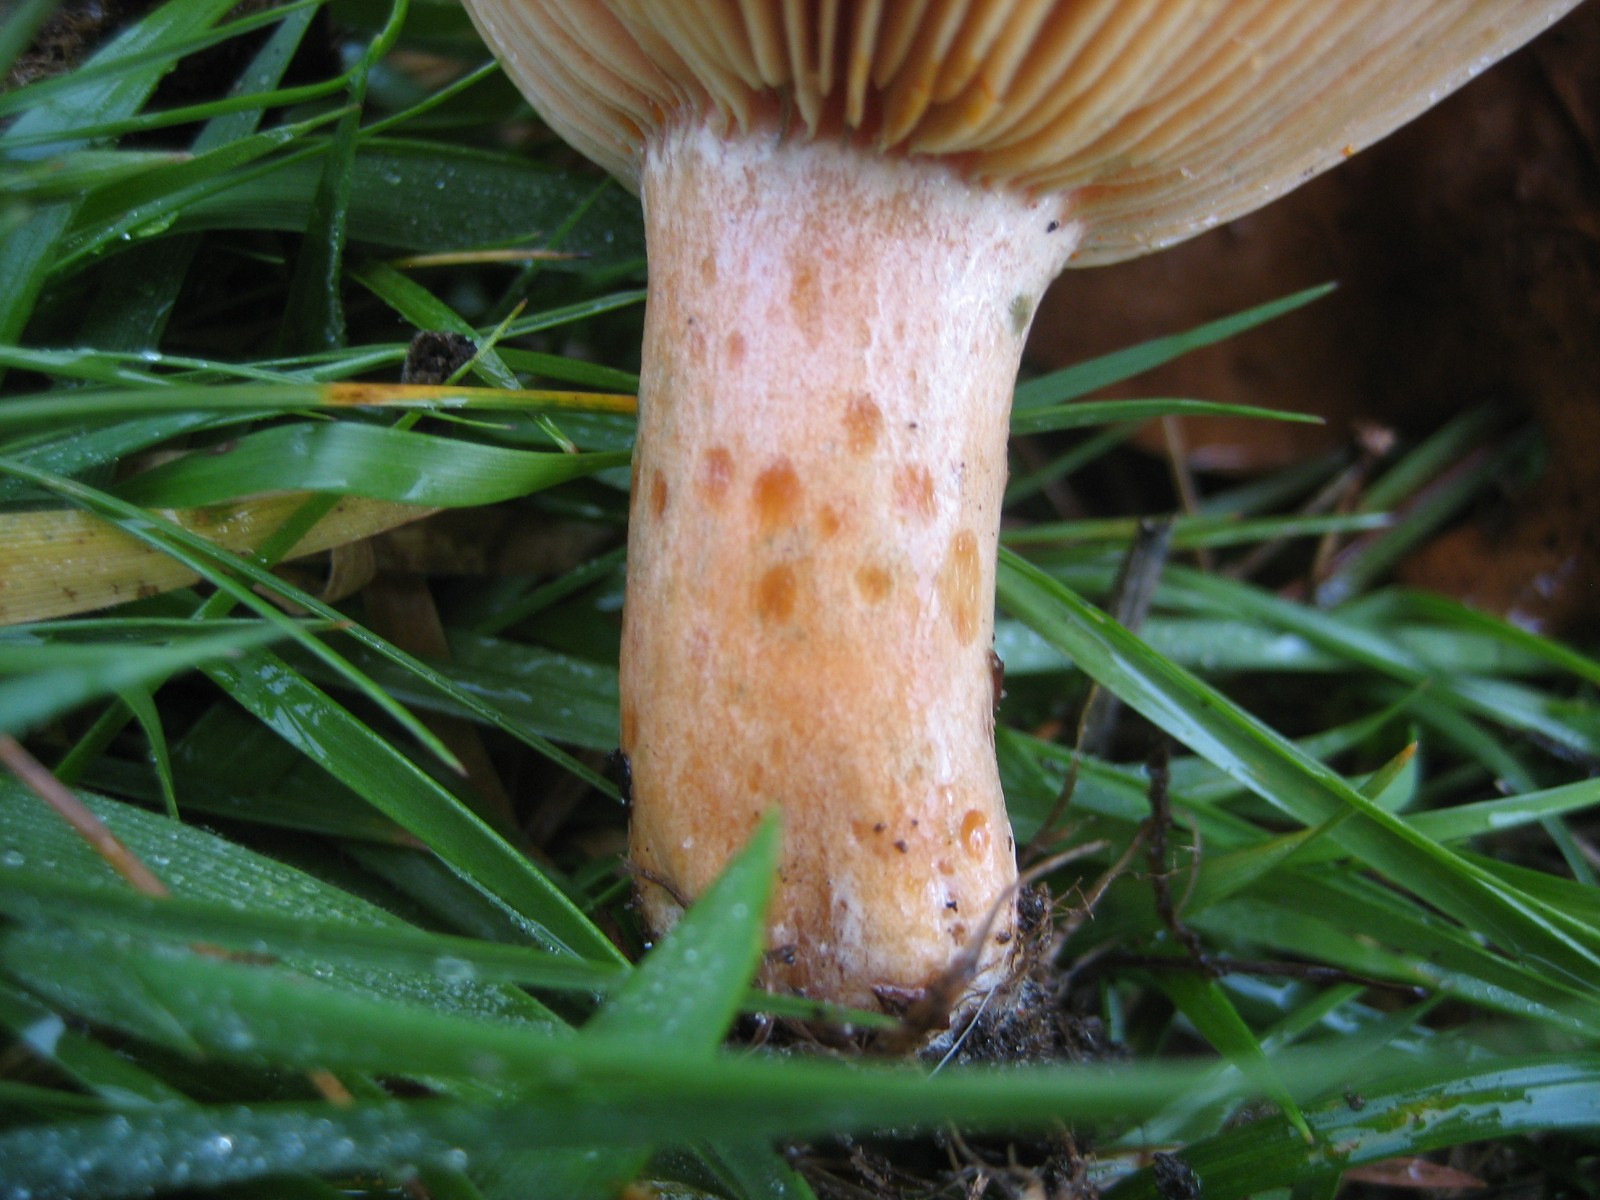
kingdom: Fungi
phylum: Basidiomycota
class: Agaricomycetes
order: Russulales
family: Russulaceae
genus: Lactarius
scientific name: Lactarius deliciosus
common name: velsmagende mælkehat
